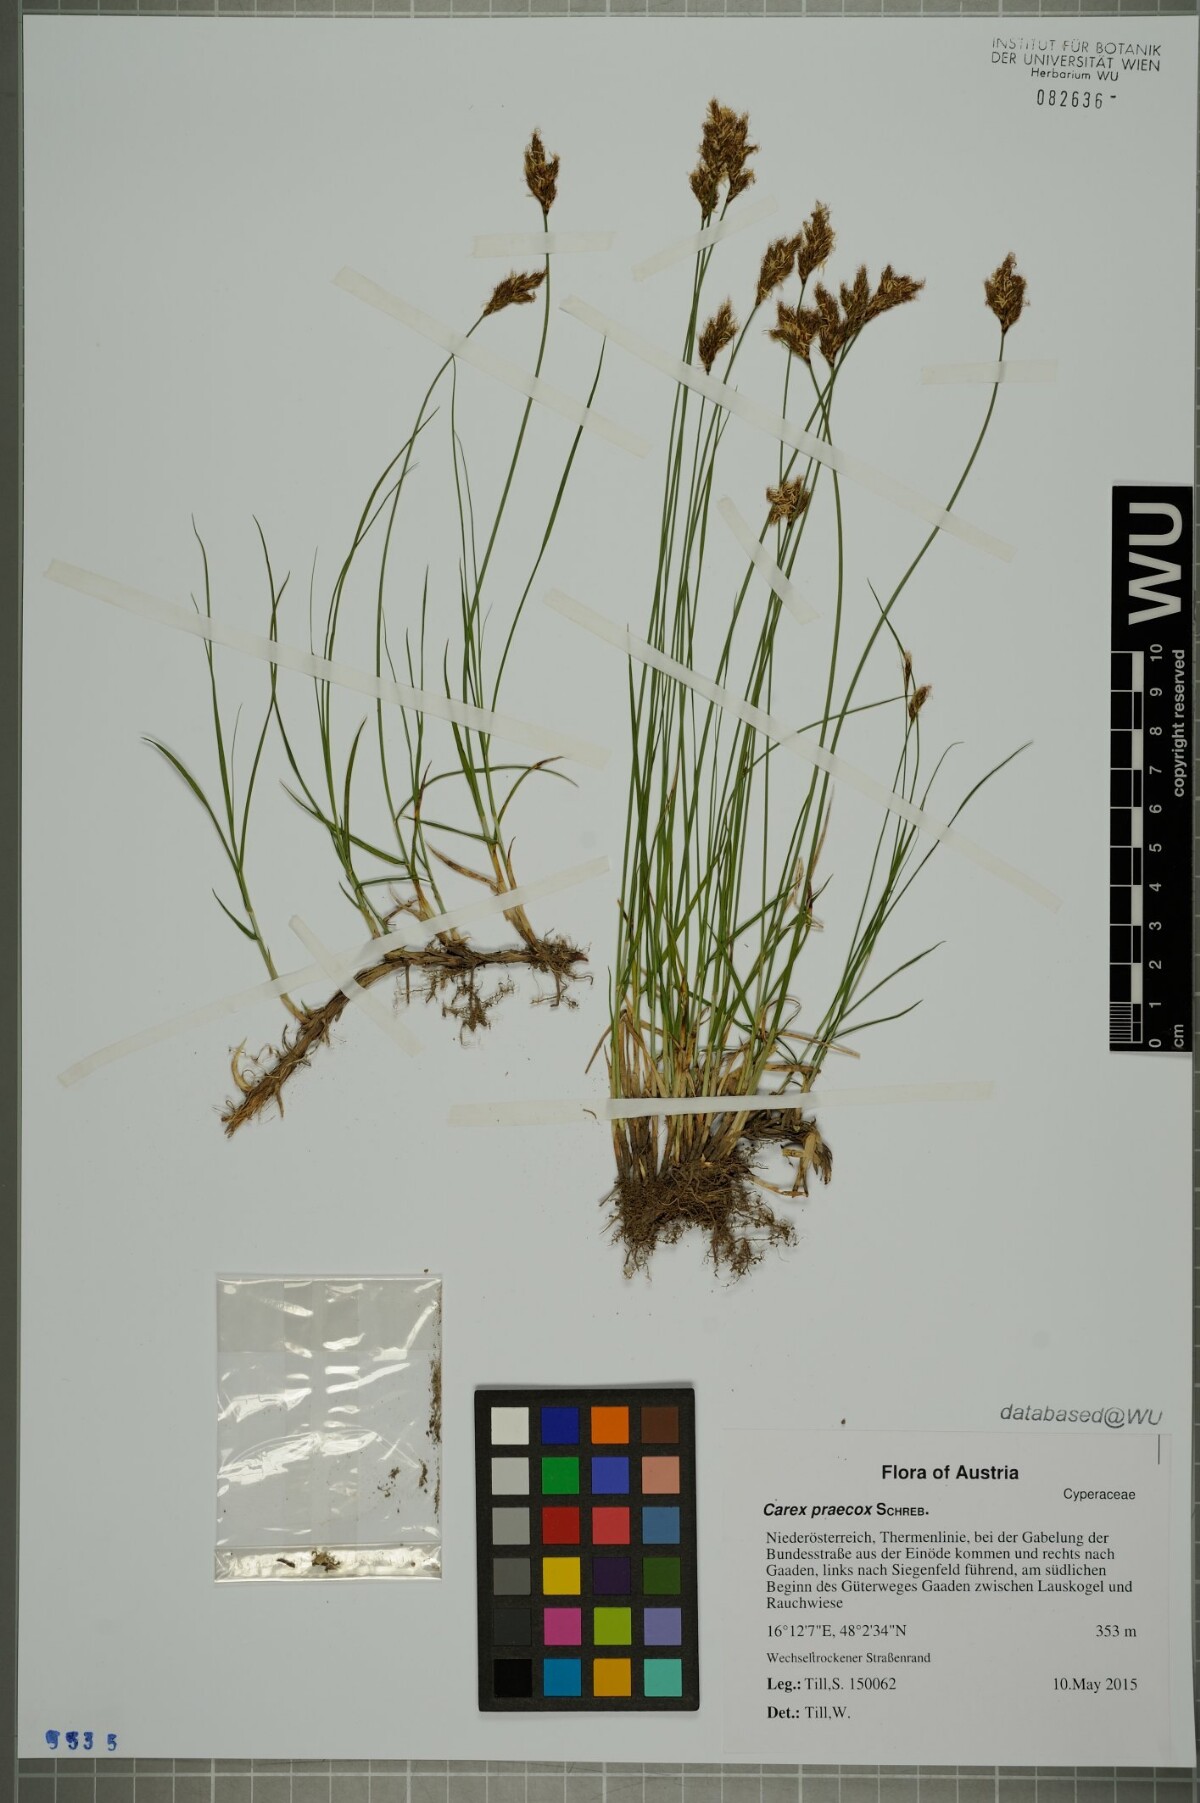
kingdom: Plantae
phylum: Tracheophyta
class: Liliopsida
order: Poales
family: Cyperaceae
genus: Carex
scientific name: Carex praecox
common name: Early sedge
